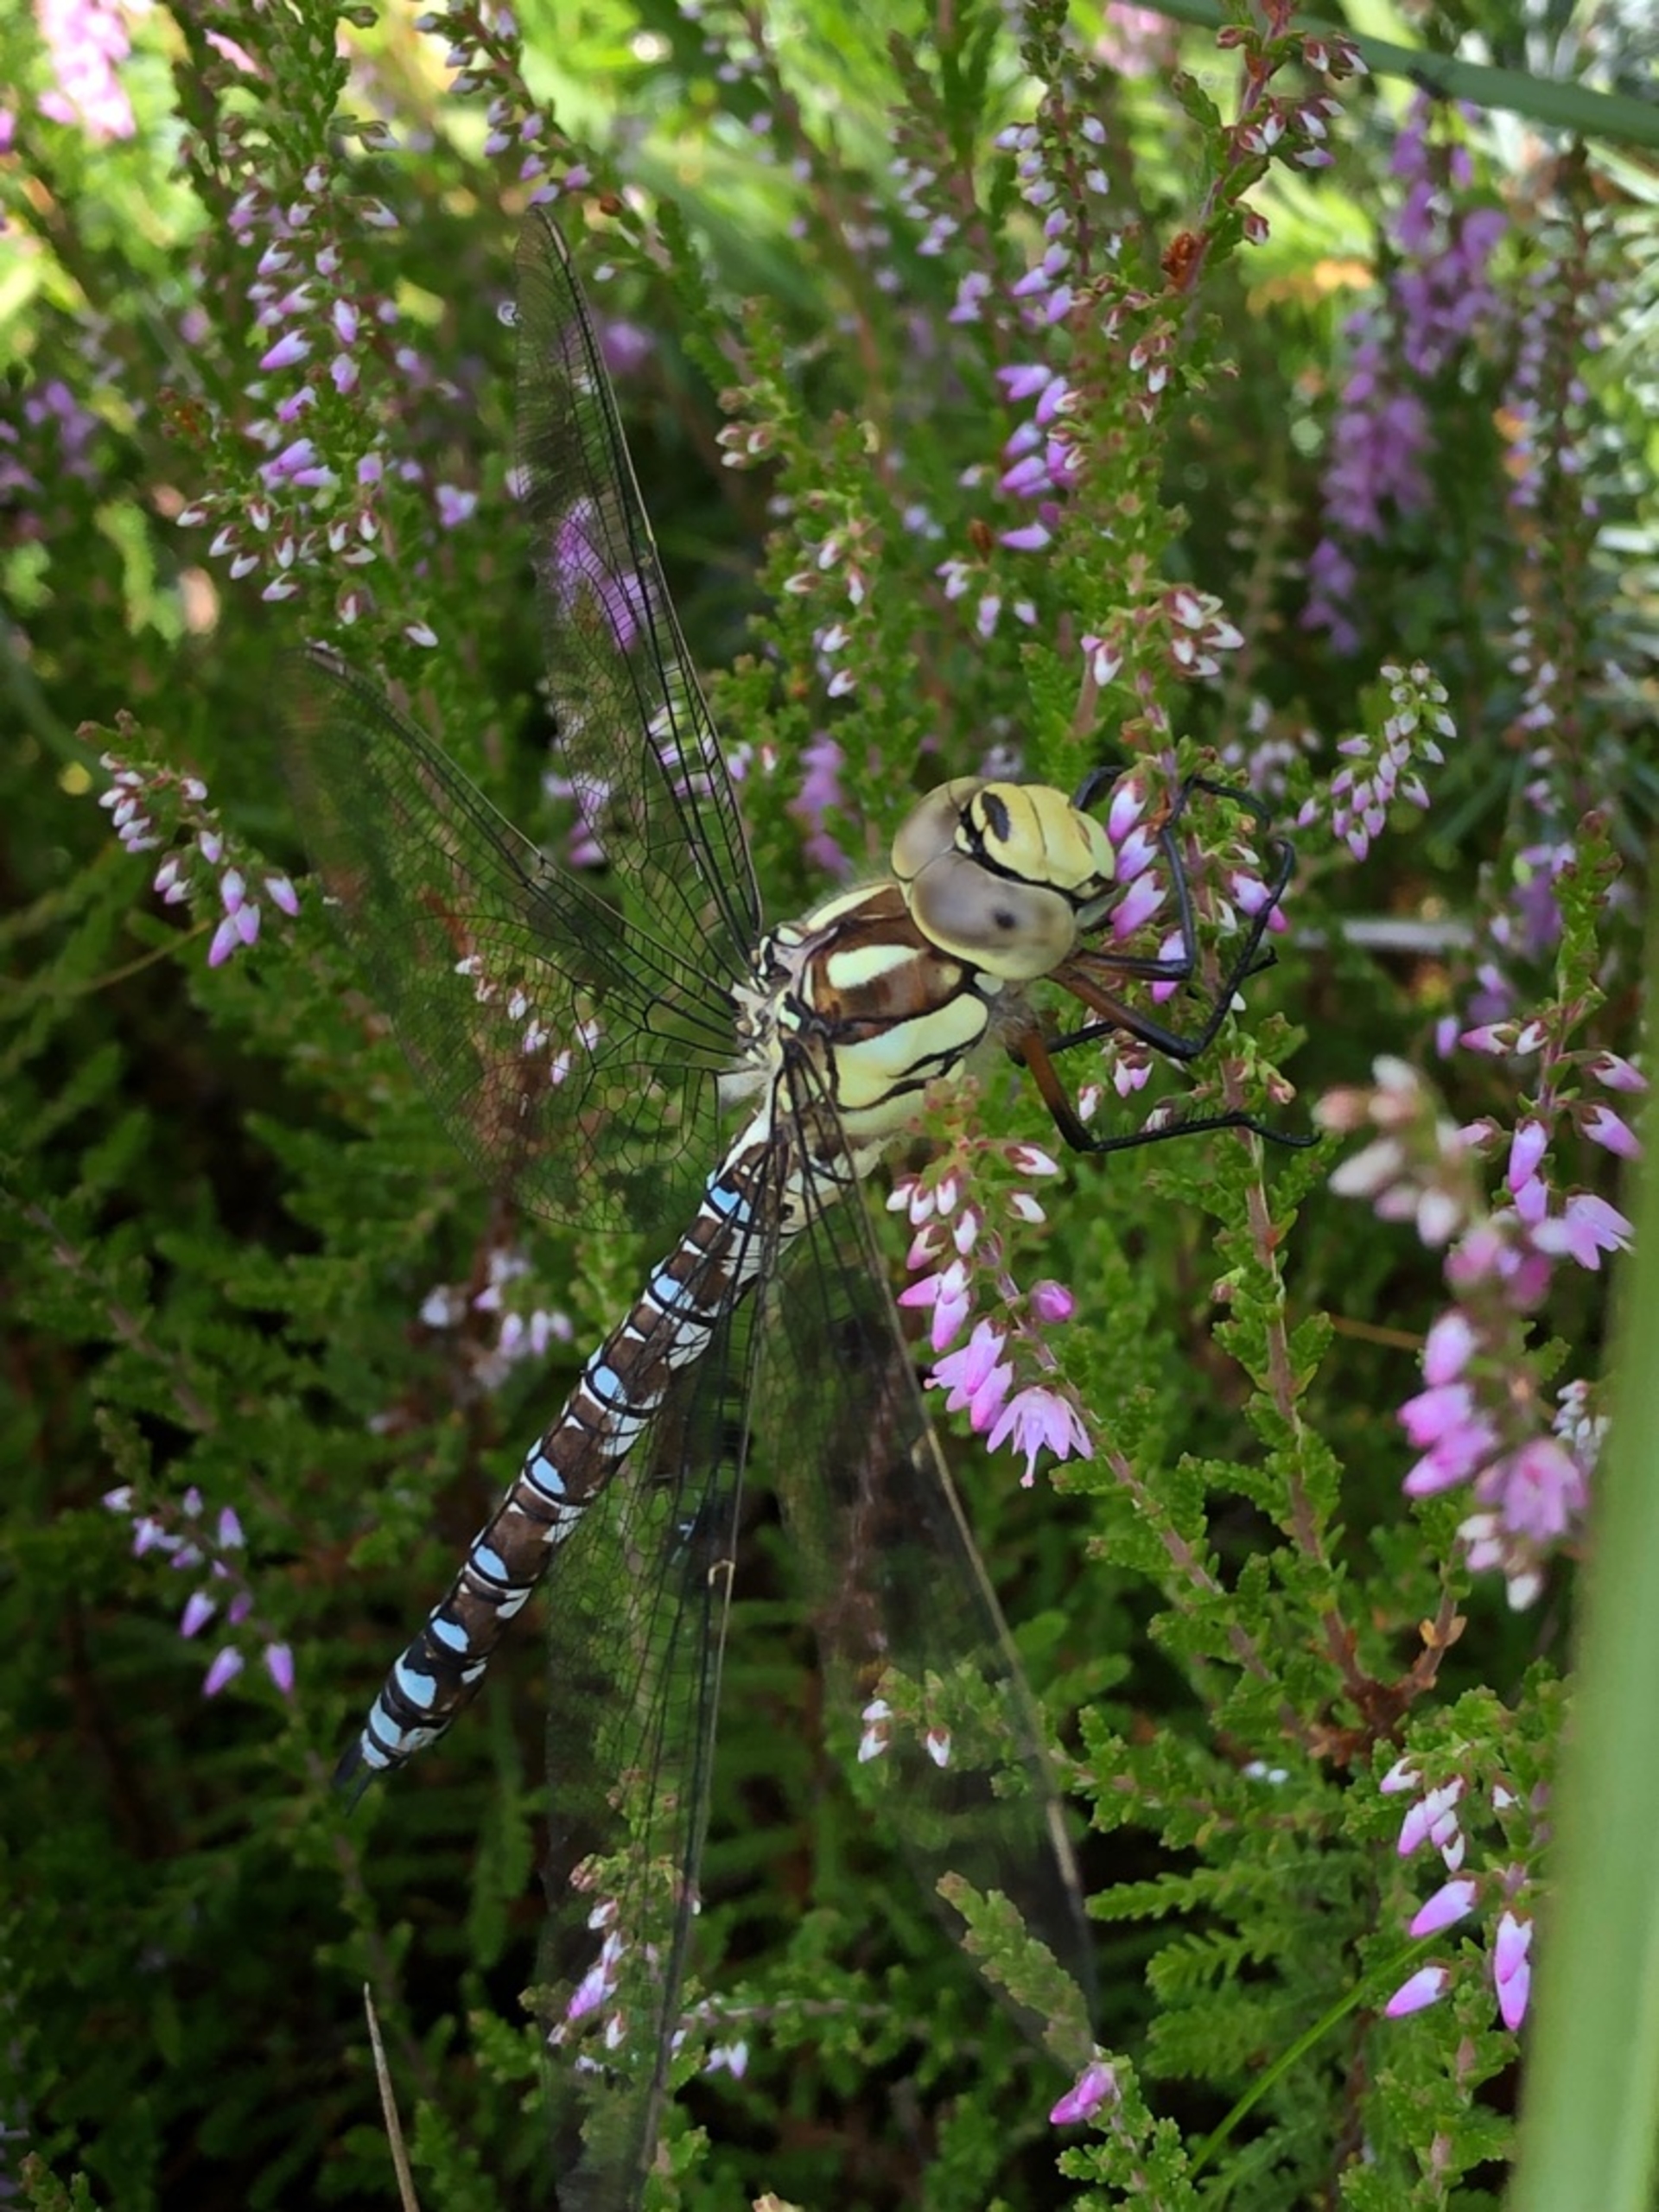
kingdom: Animalia
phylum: Arthropoda
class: Insecta
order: Odonata
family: Aeshnidae
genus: Aeshna
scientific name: Aeshna cyanea
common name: Blå mosaikguldsmed
